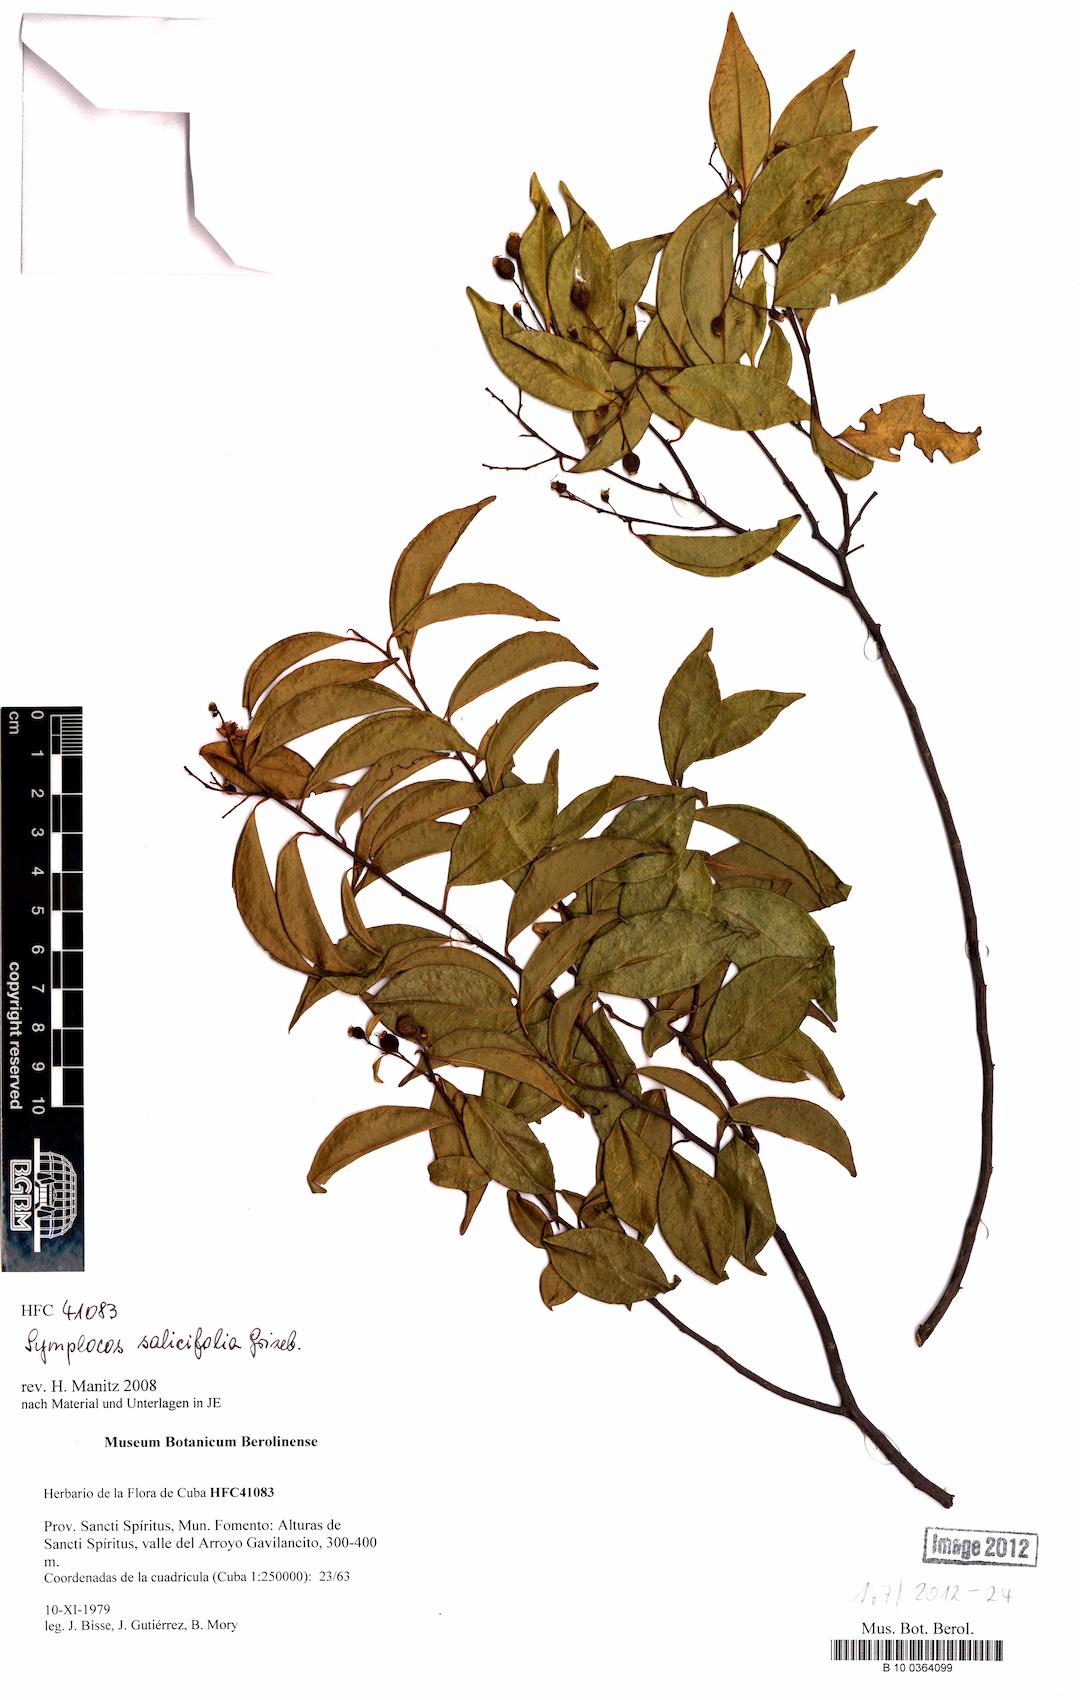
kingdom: Plantae
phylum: Tracheophyta
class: Magnoliopsida
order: Ericales
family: Symplocaceae
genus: Symplocos
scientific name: Symplocos salicifolia
